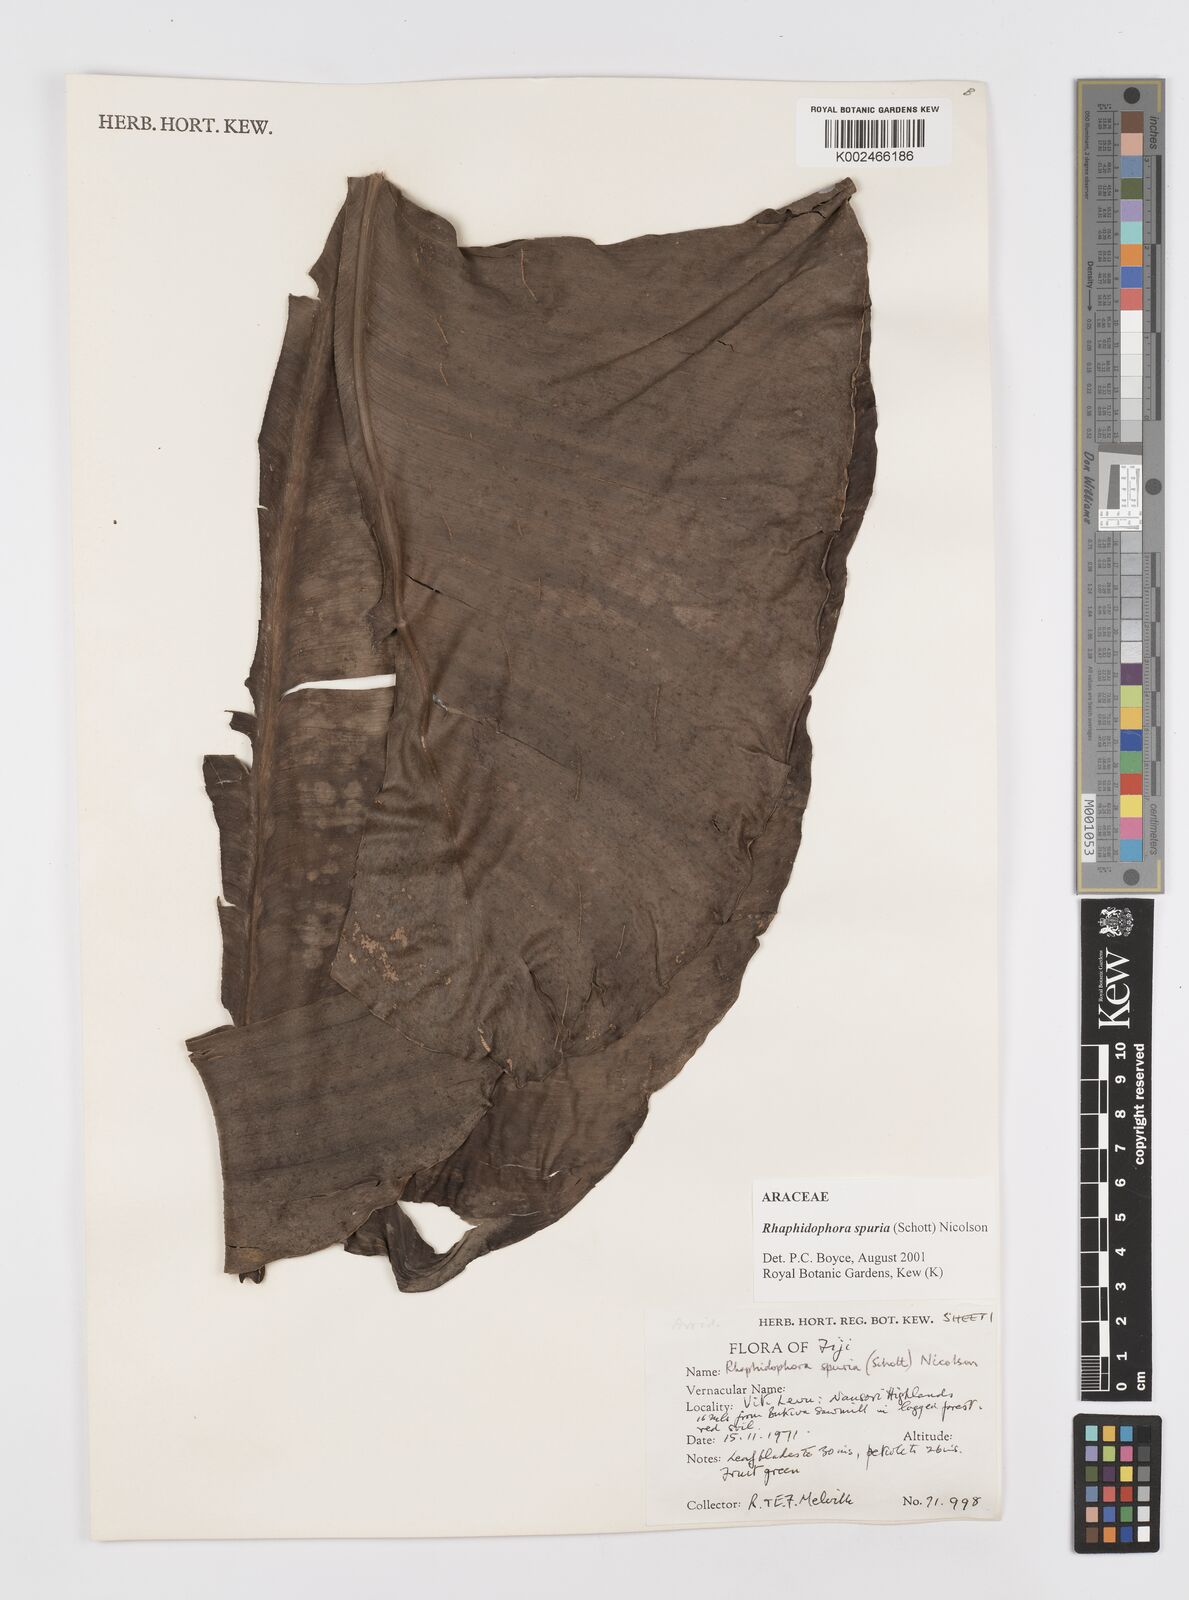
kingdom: Plantae
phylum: Tracheophyta
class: Liliopsida
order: Alismatales
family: Araceae
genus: Rhaphidophora
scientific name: Rhaphidophora spuria
